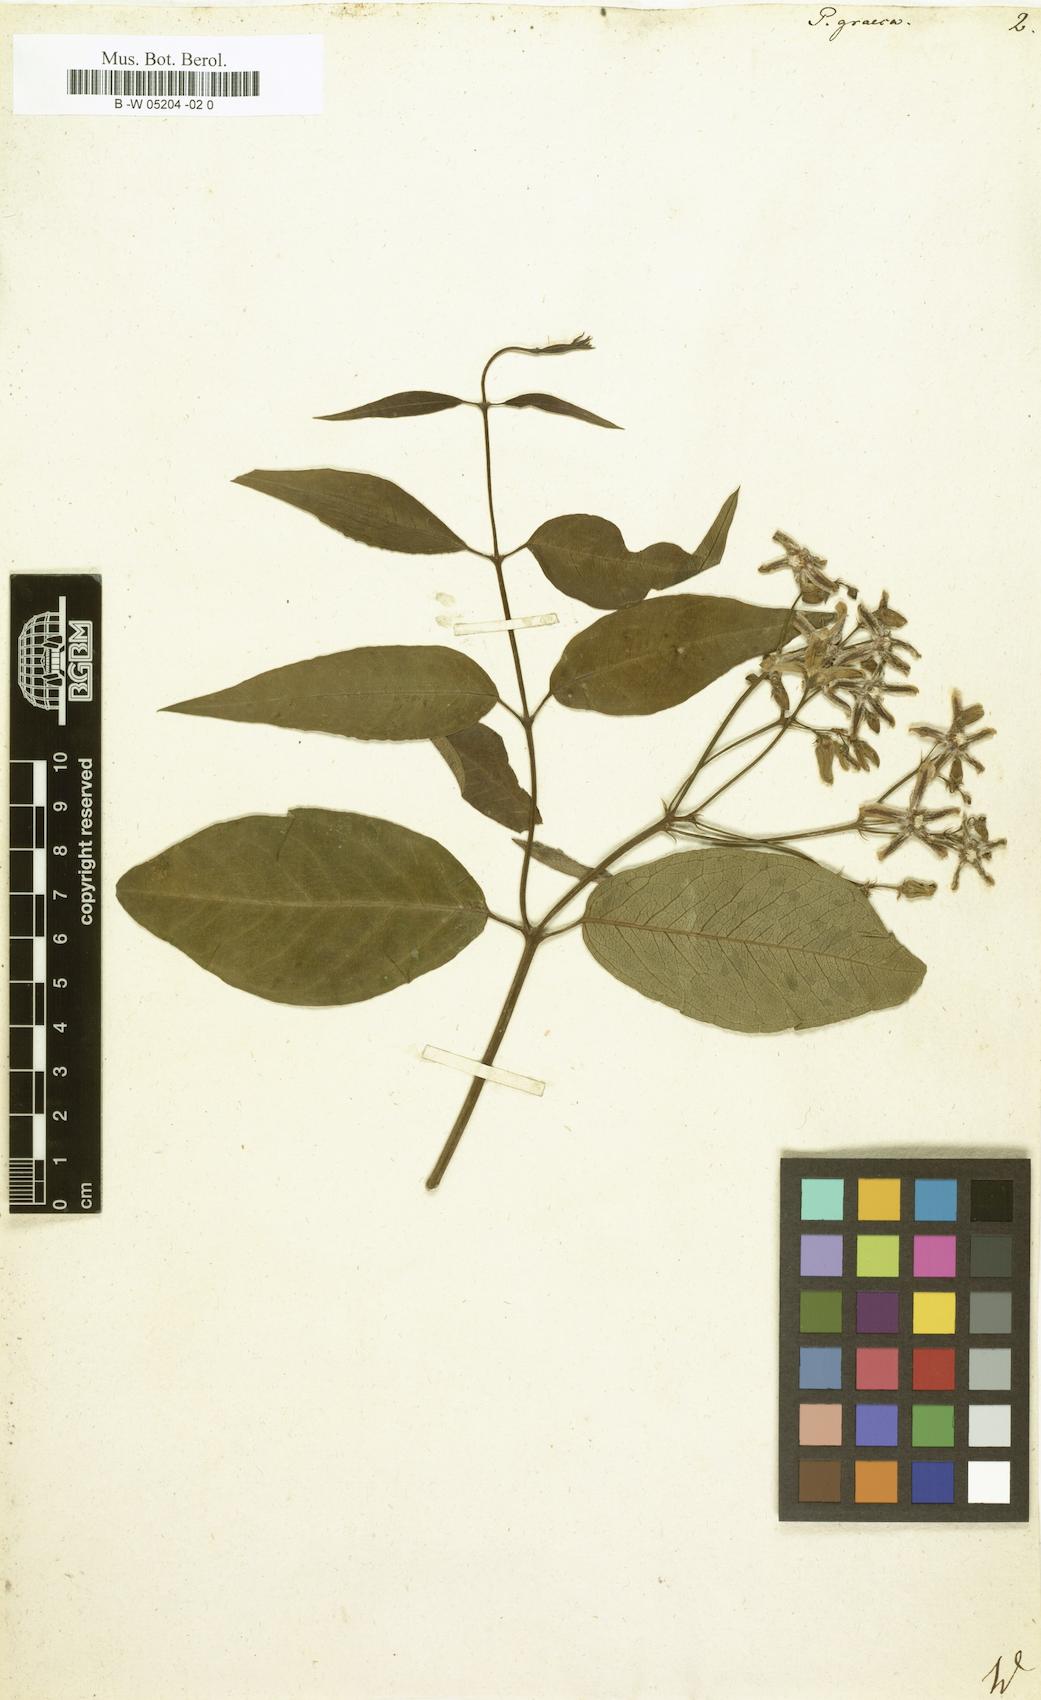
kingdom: Plantae
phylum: Tracheophyta
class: Magnoliopsida
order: Gentianales
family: Apocynaceae
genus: Periploca
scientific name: Periploca graeca
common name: Silkvine
